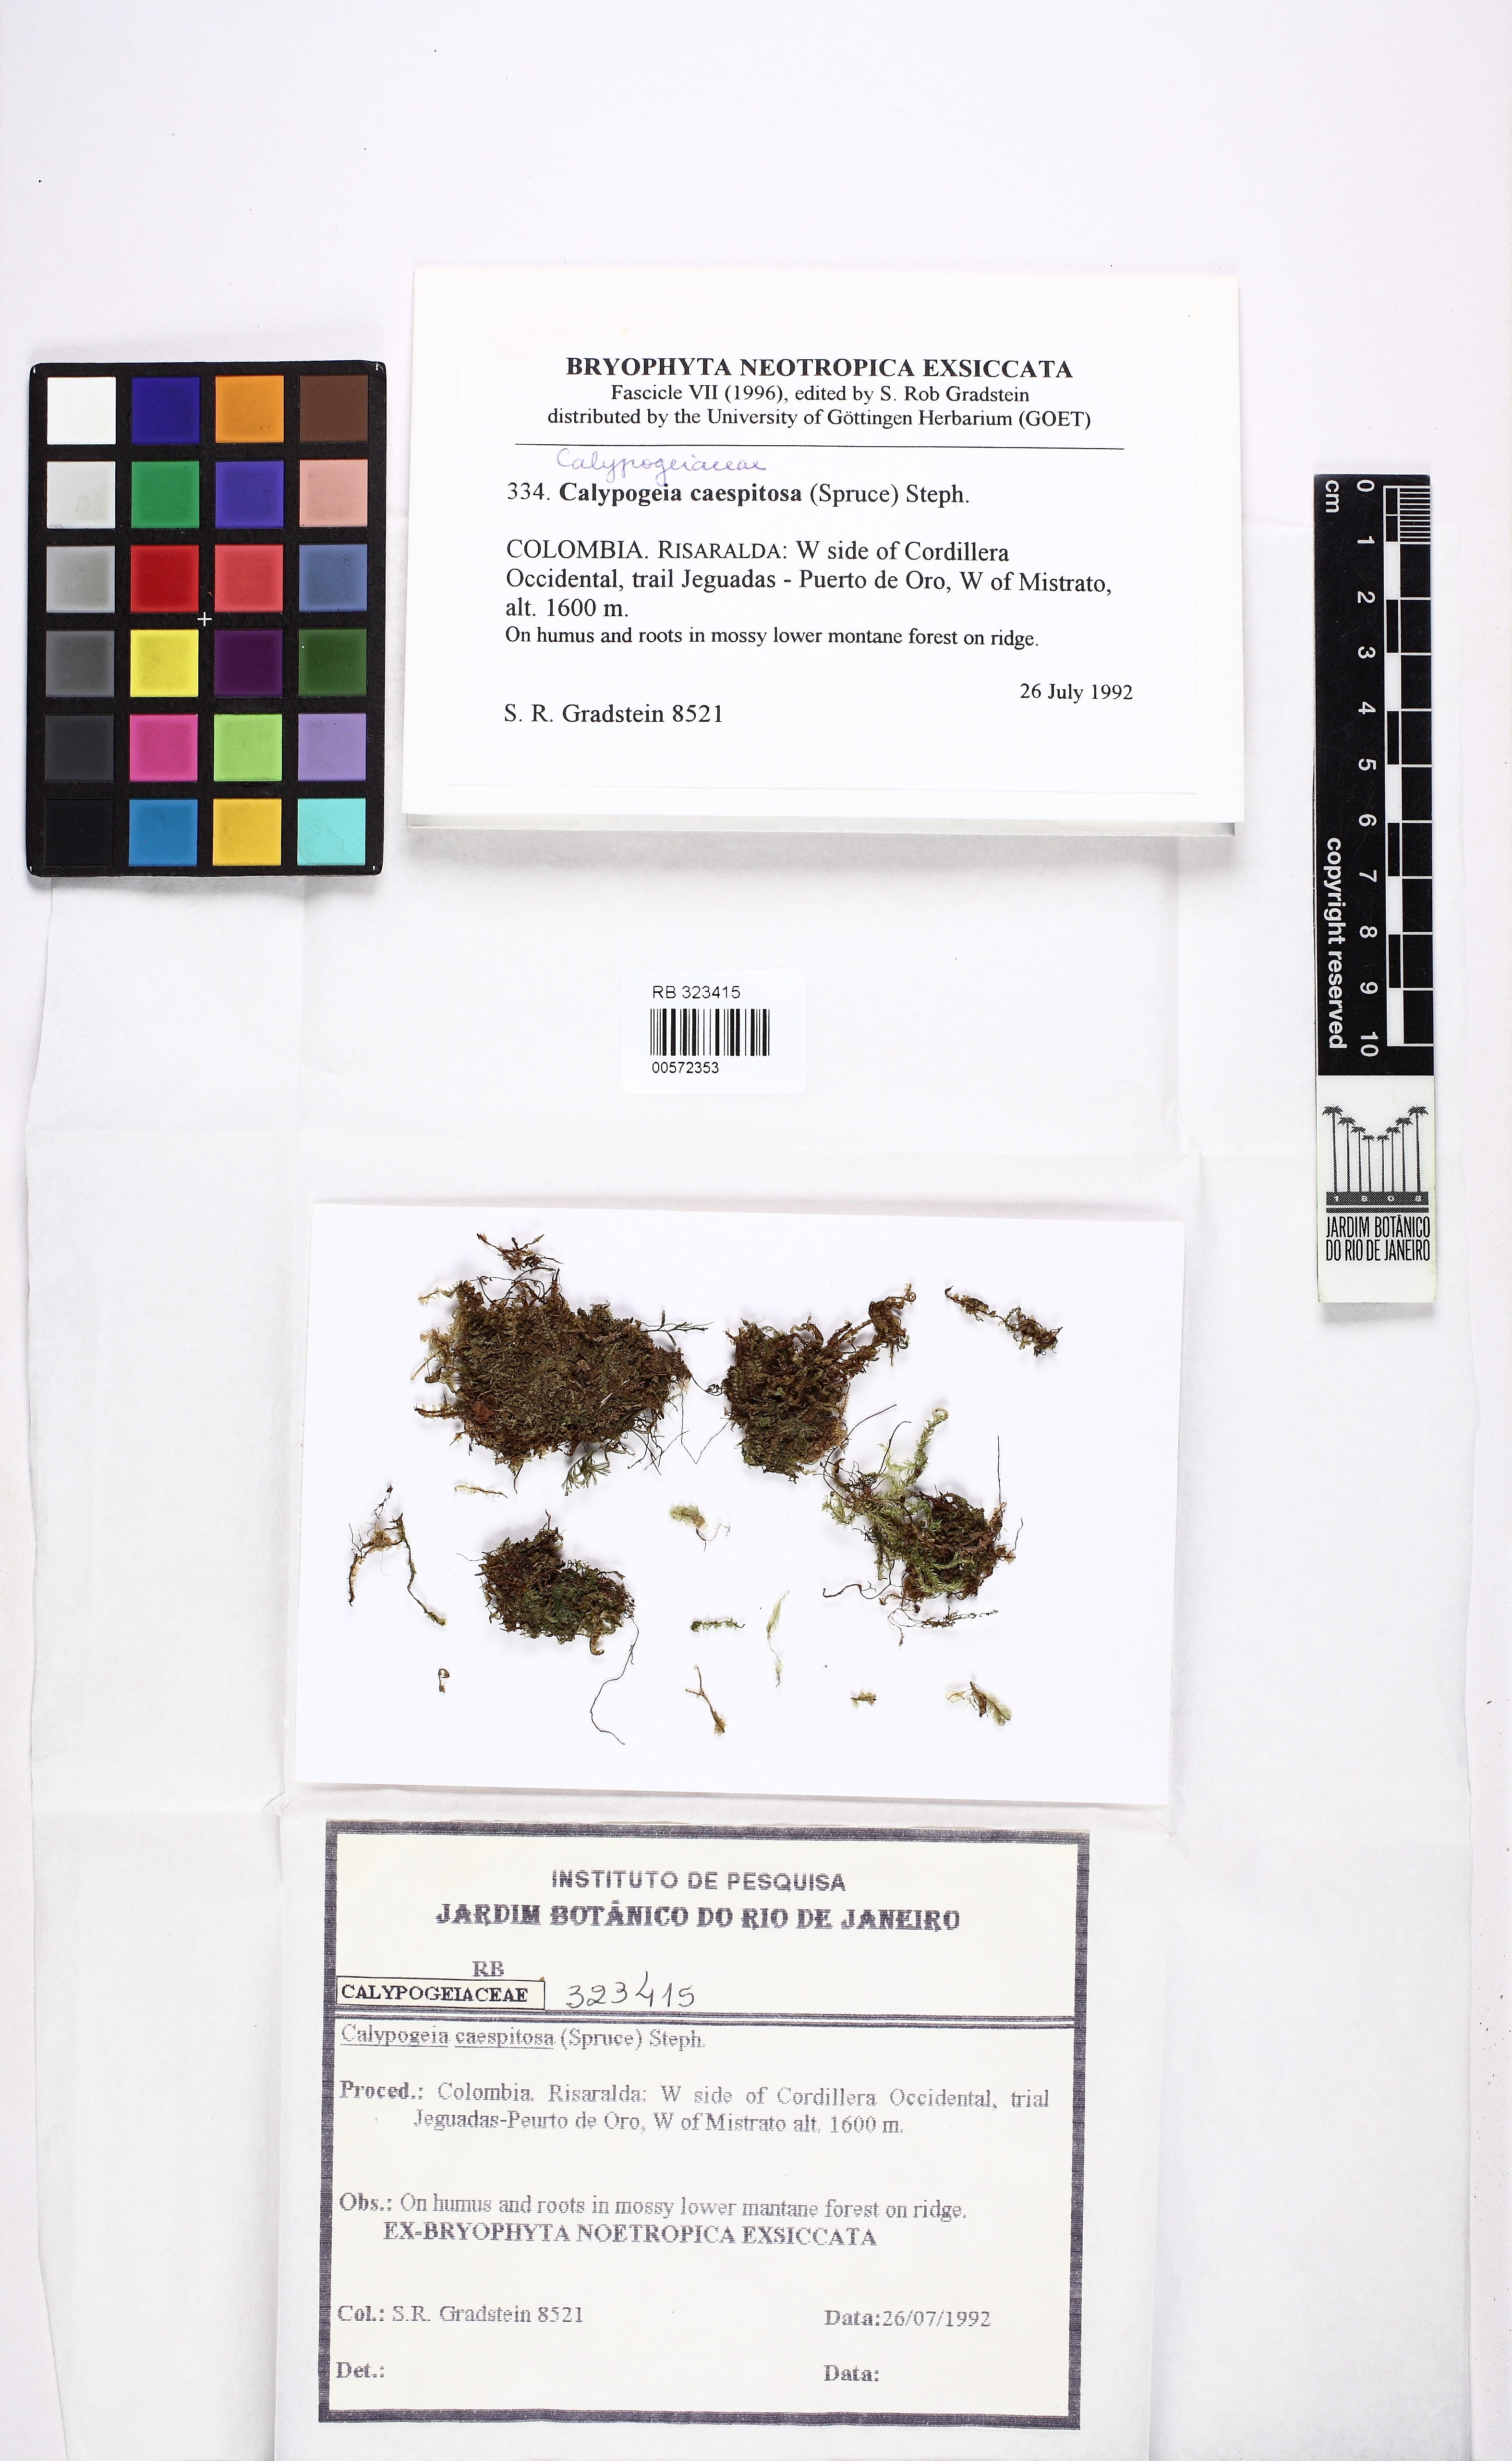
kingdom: Plantae
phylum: Marchantiophyta
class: Jungermanniopsida
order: Jungermanniales
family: Calypogeiaceae
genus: Mnioloma
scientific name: Mnioloma caespitosum
